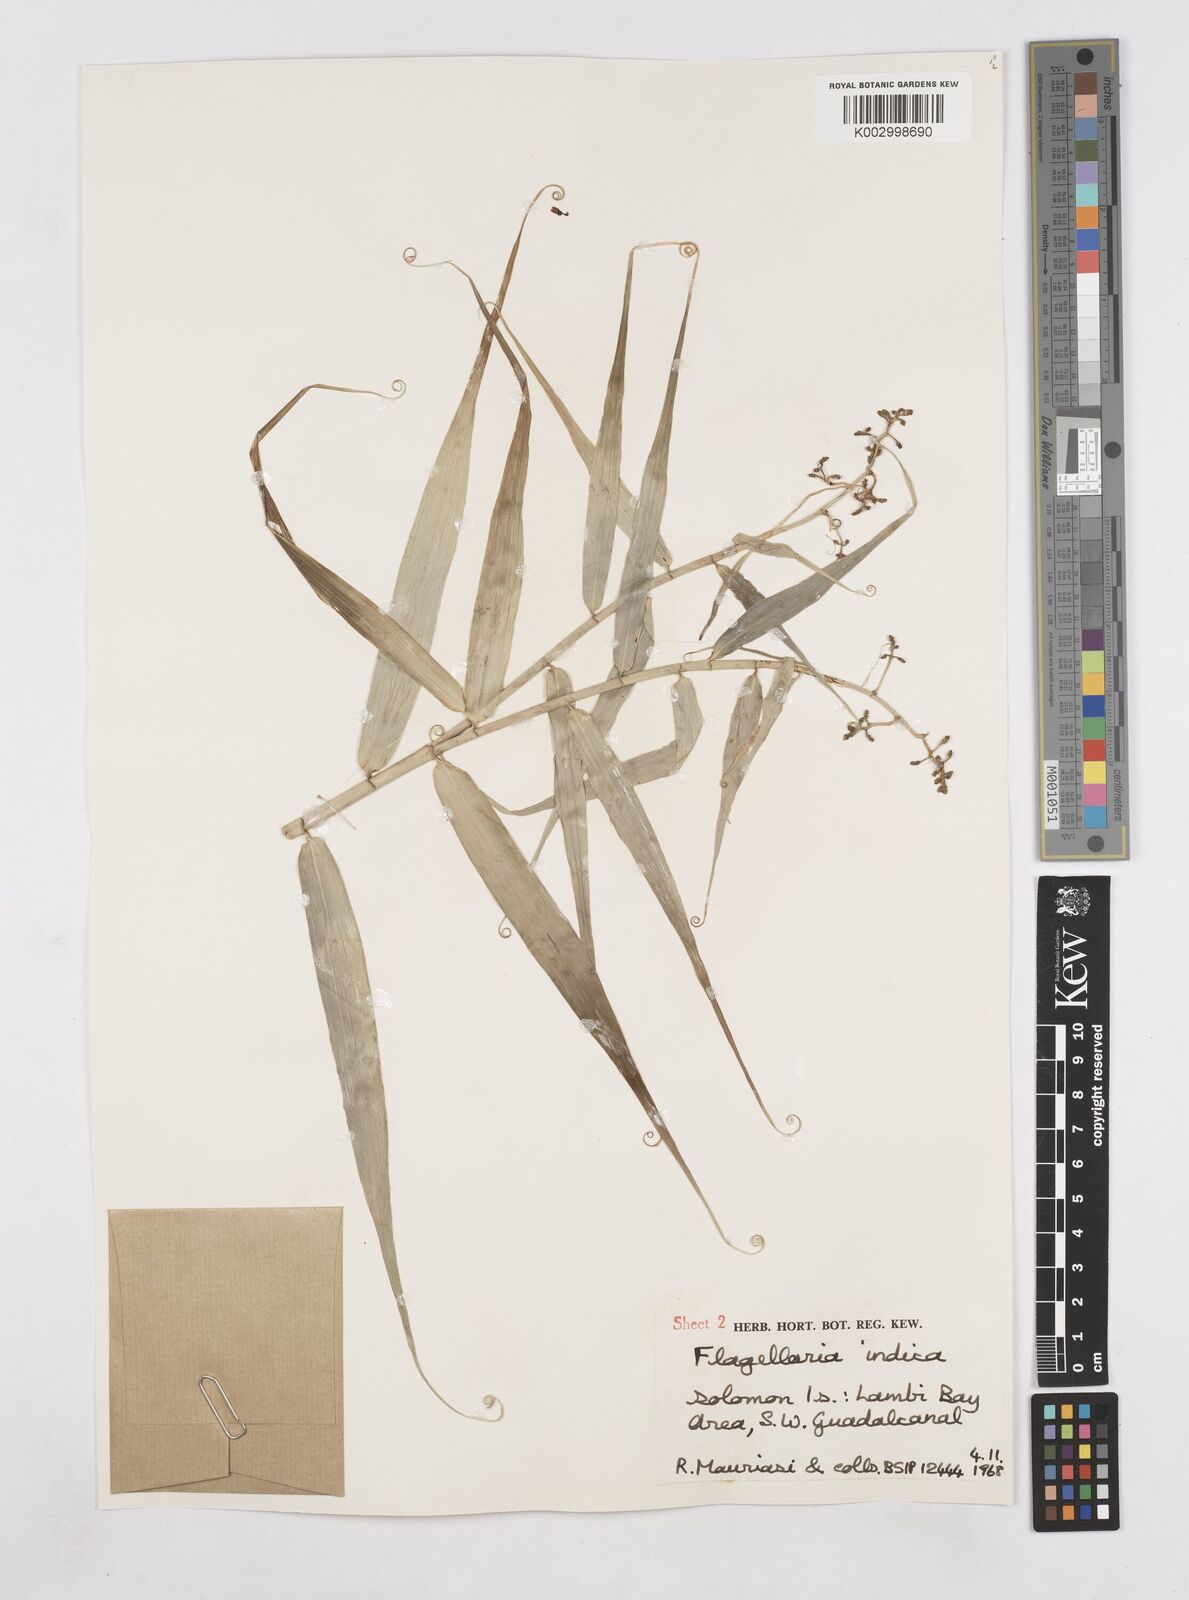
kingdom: Plantae
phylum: Tracheophyta
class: Liliopsida
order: Poales
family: Flagellariaceae
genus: Flagellaria
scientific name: Flagellaria indica
